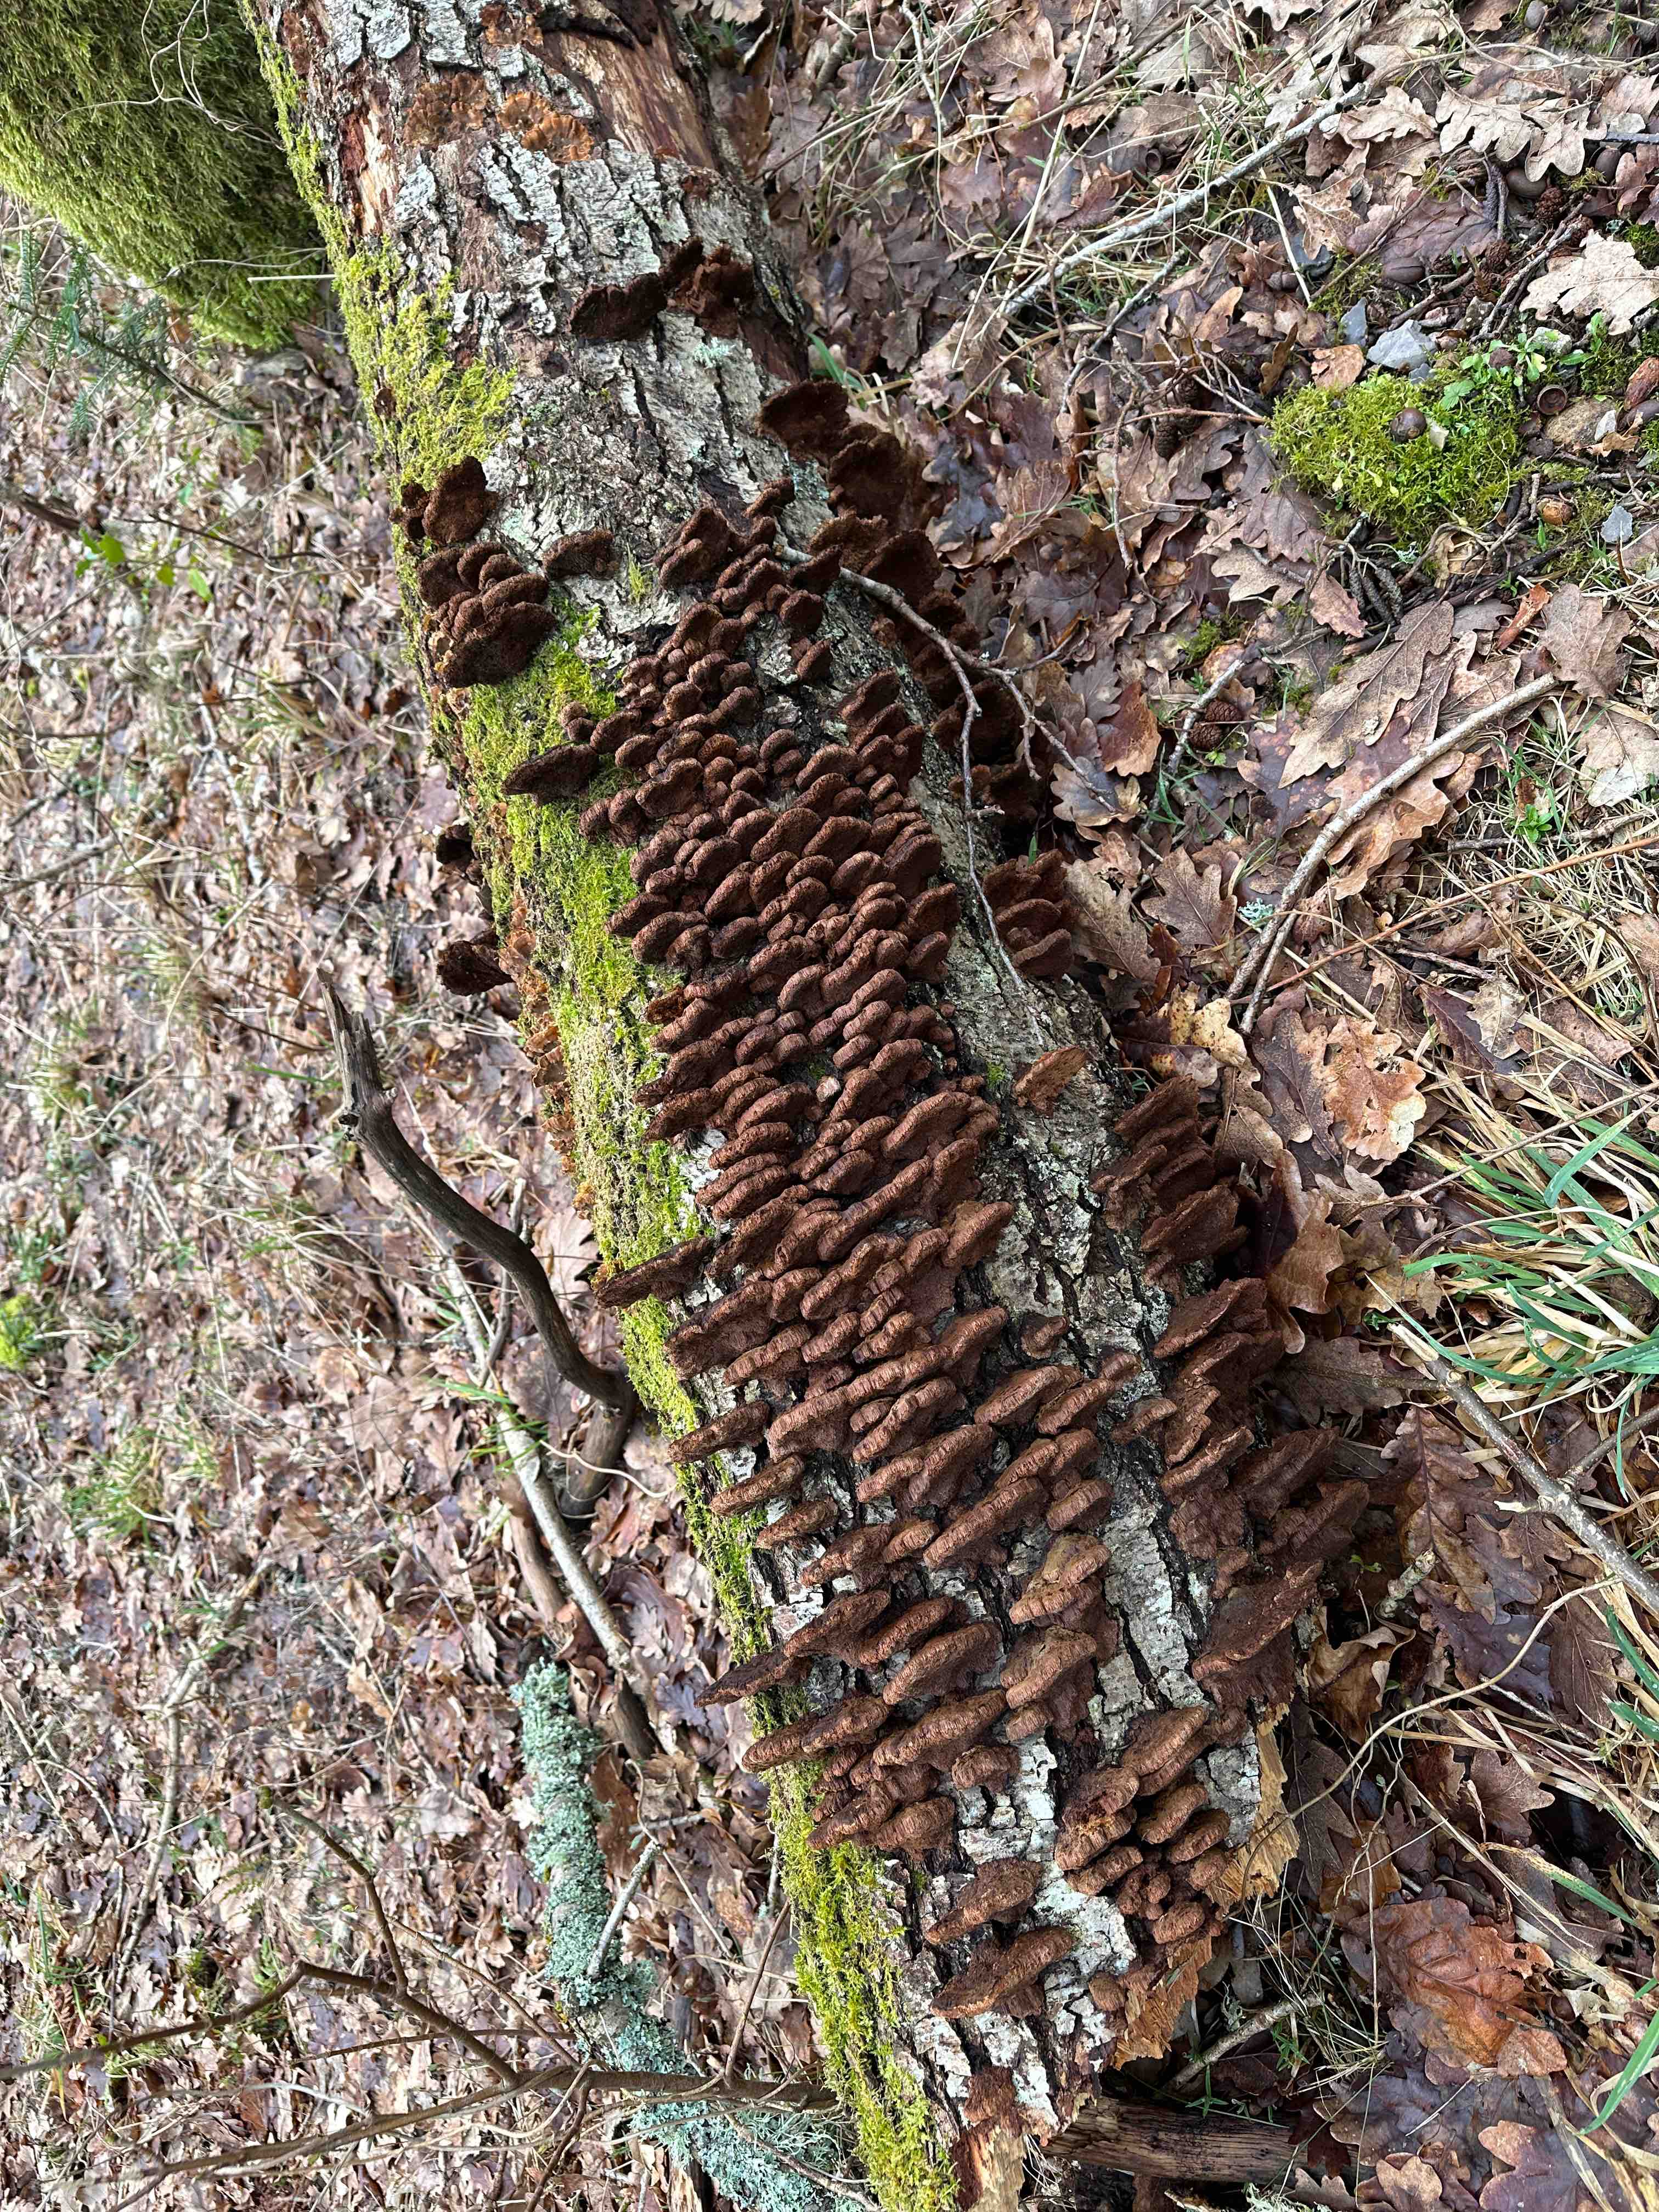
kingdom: Fungi
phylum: Basidiomycota
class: Agaricomycetes
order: Hymenochaetales
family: Hymenochaetaceae
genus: Xanthoporia
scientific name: Xanthoporia radiata
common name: elle-spejlporesvamp
